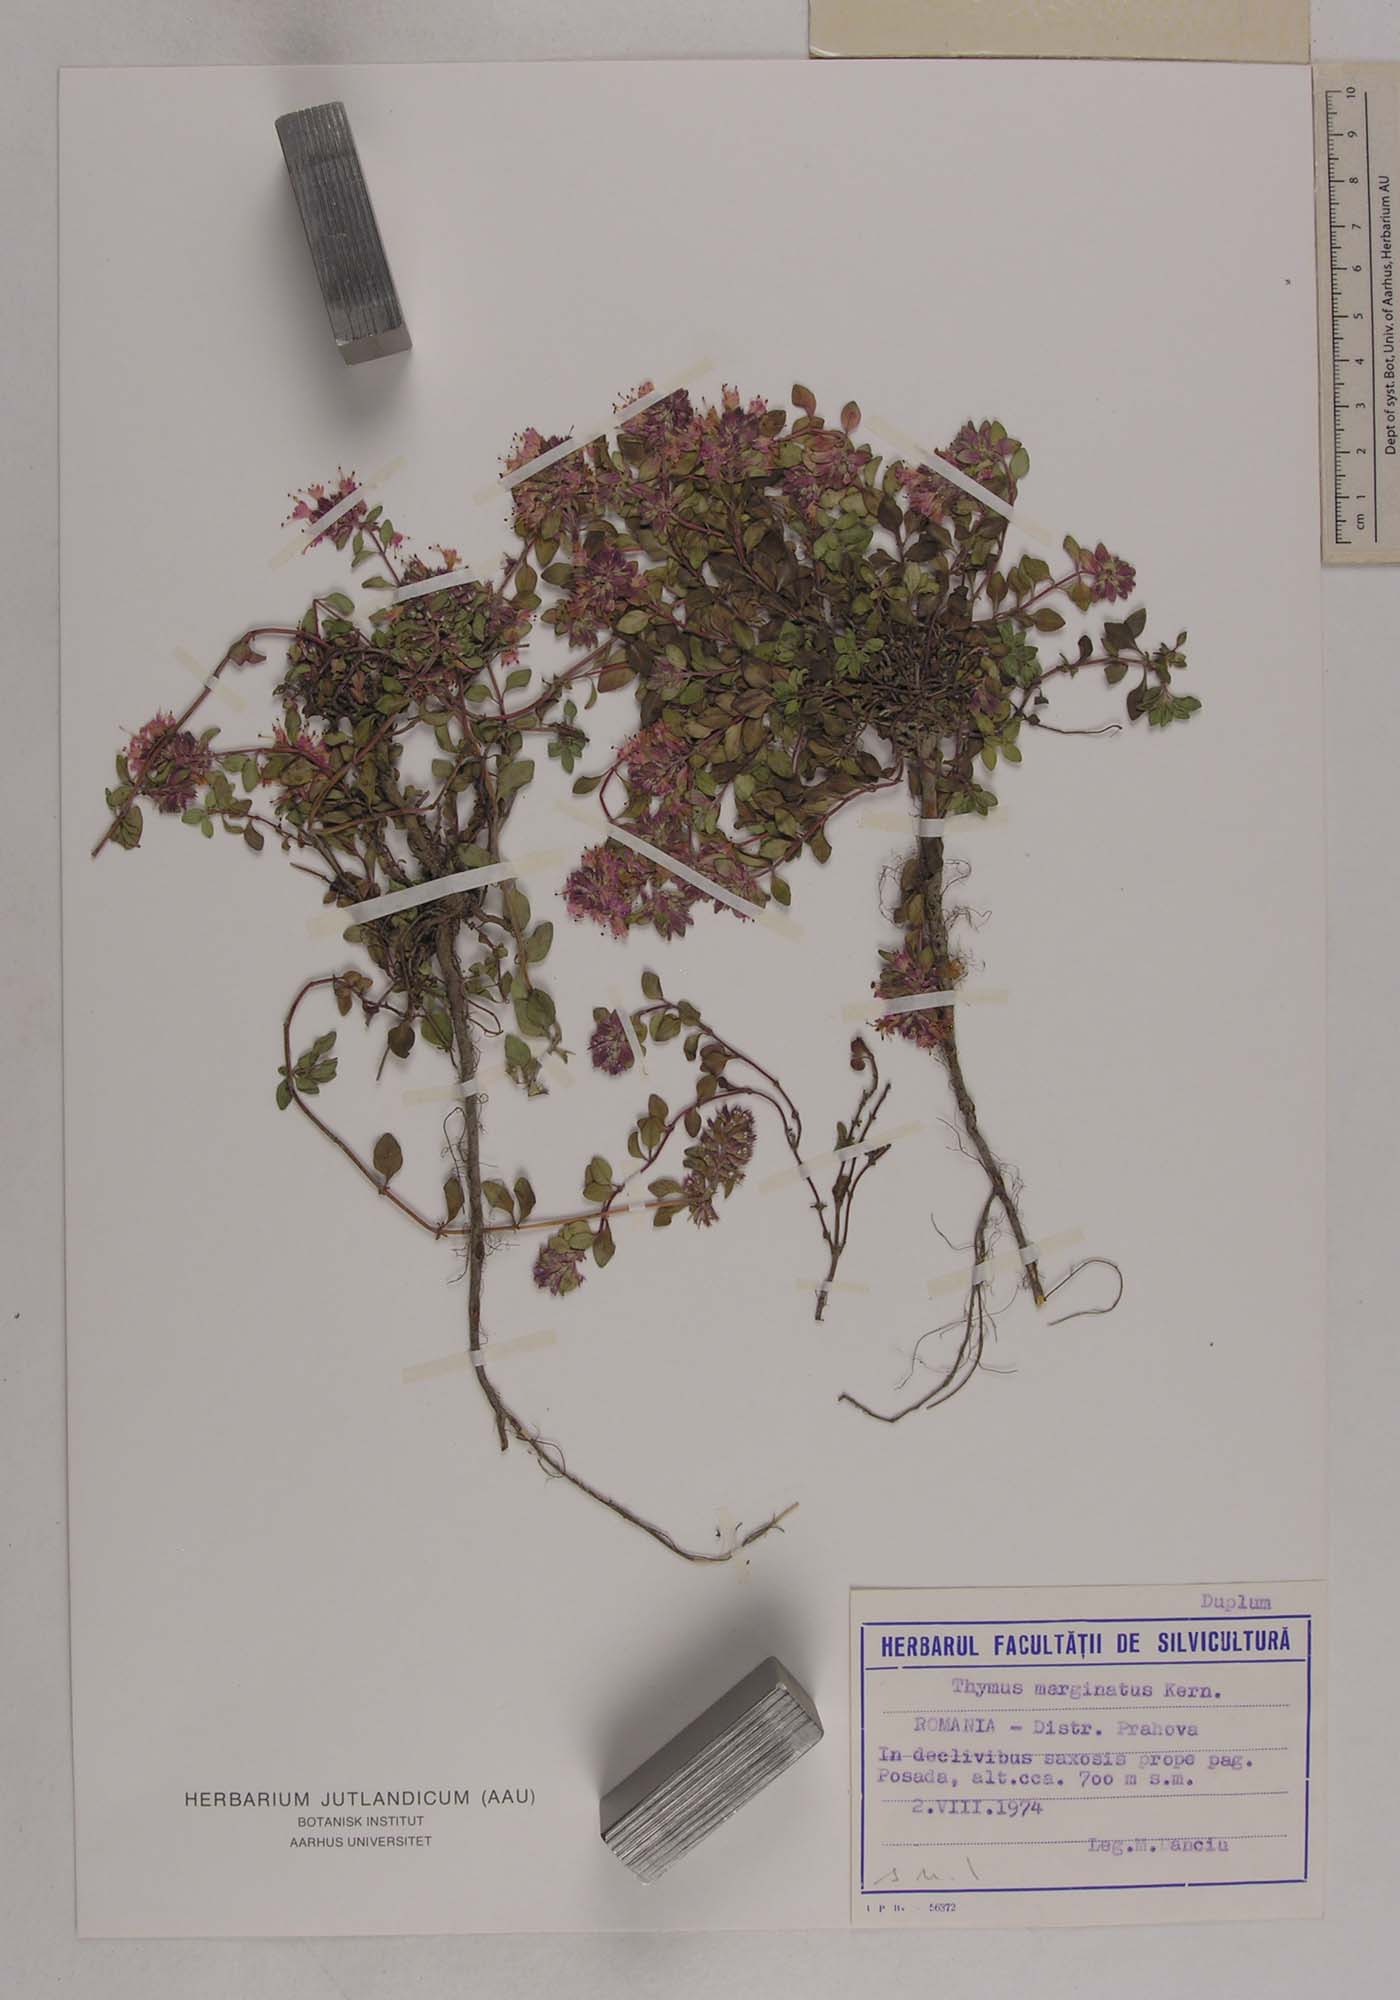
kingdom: Plantae
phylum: Tracheophyta
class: Magnoliopsida
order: Lamiales
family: Lamiaceae
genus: Thymus
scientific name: Thymus bihoriensis
